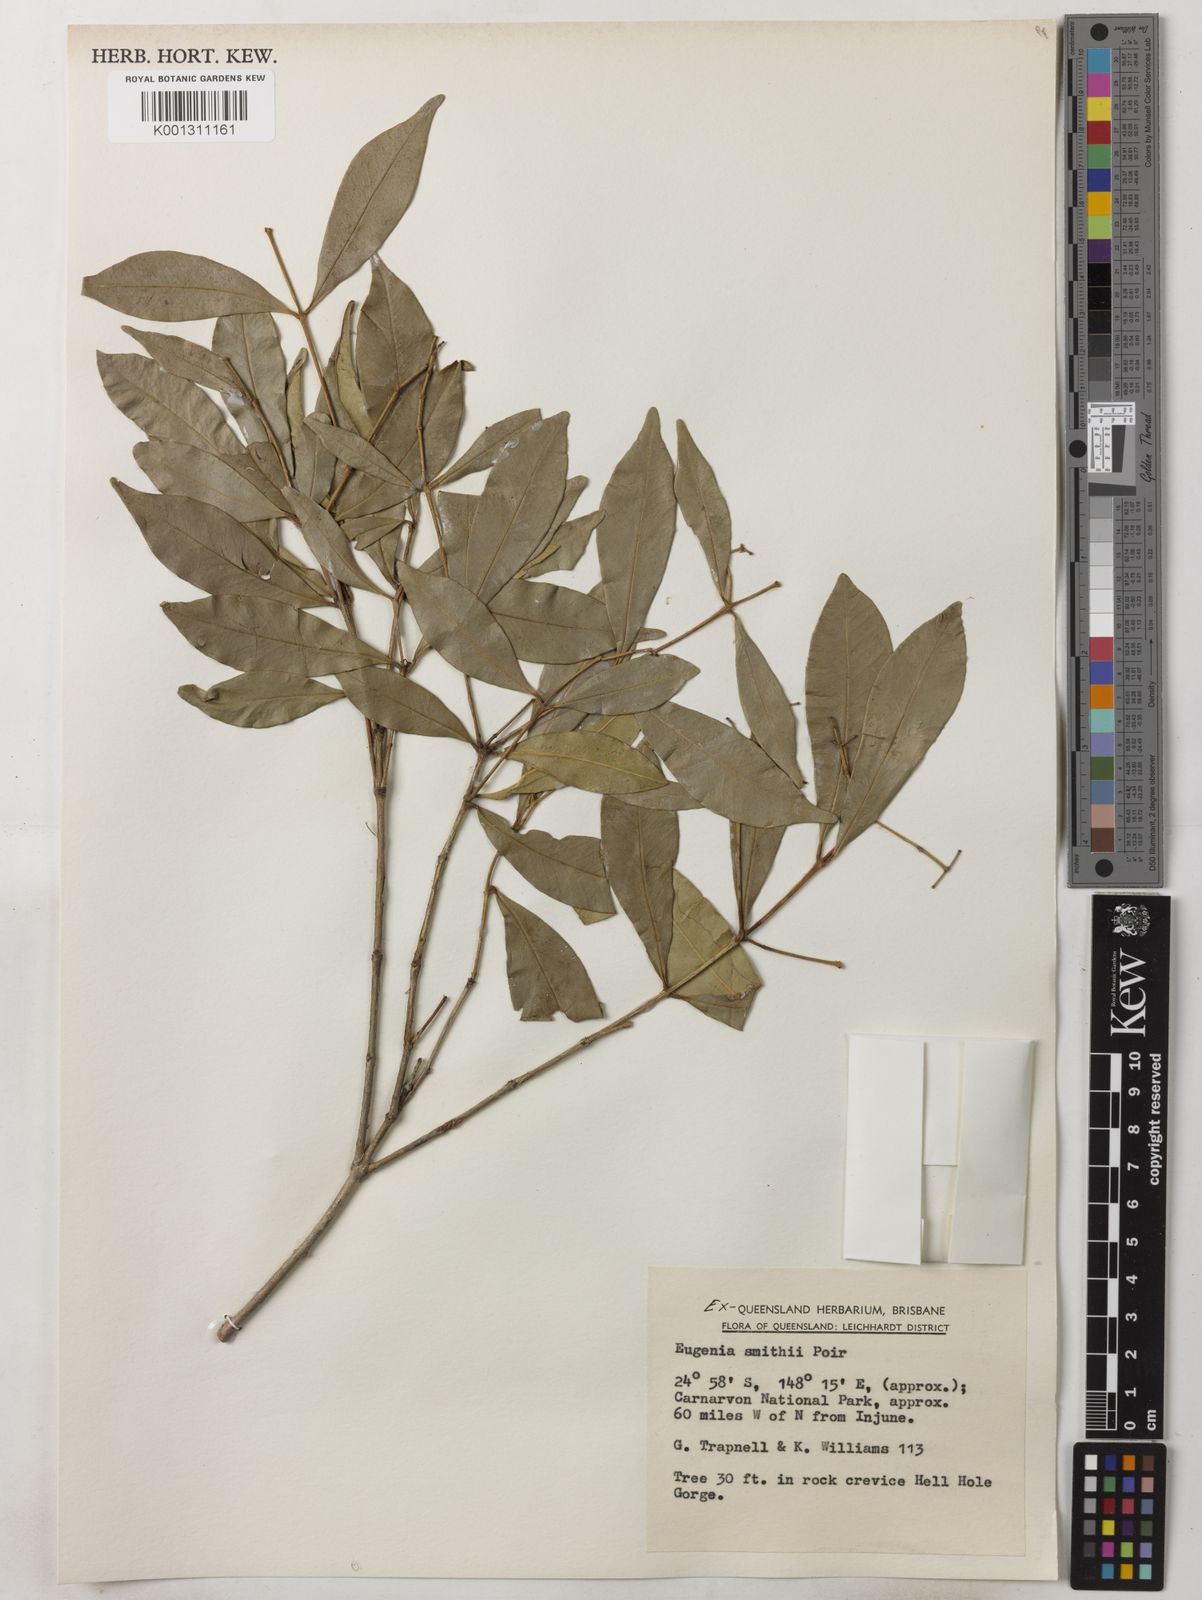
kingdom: Plantae
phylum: Tracheophyta
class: Magnoliopsida
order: Myrtales
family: Myrtaceae
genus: Syzygium
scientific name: Syzygium smithii
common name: Lilly-pilly
